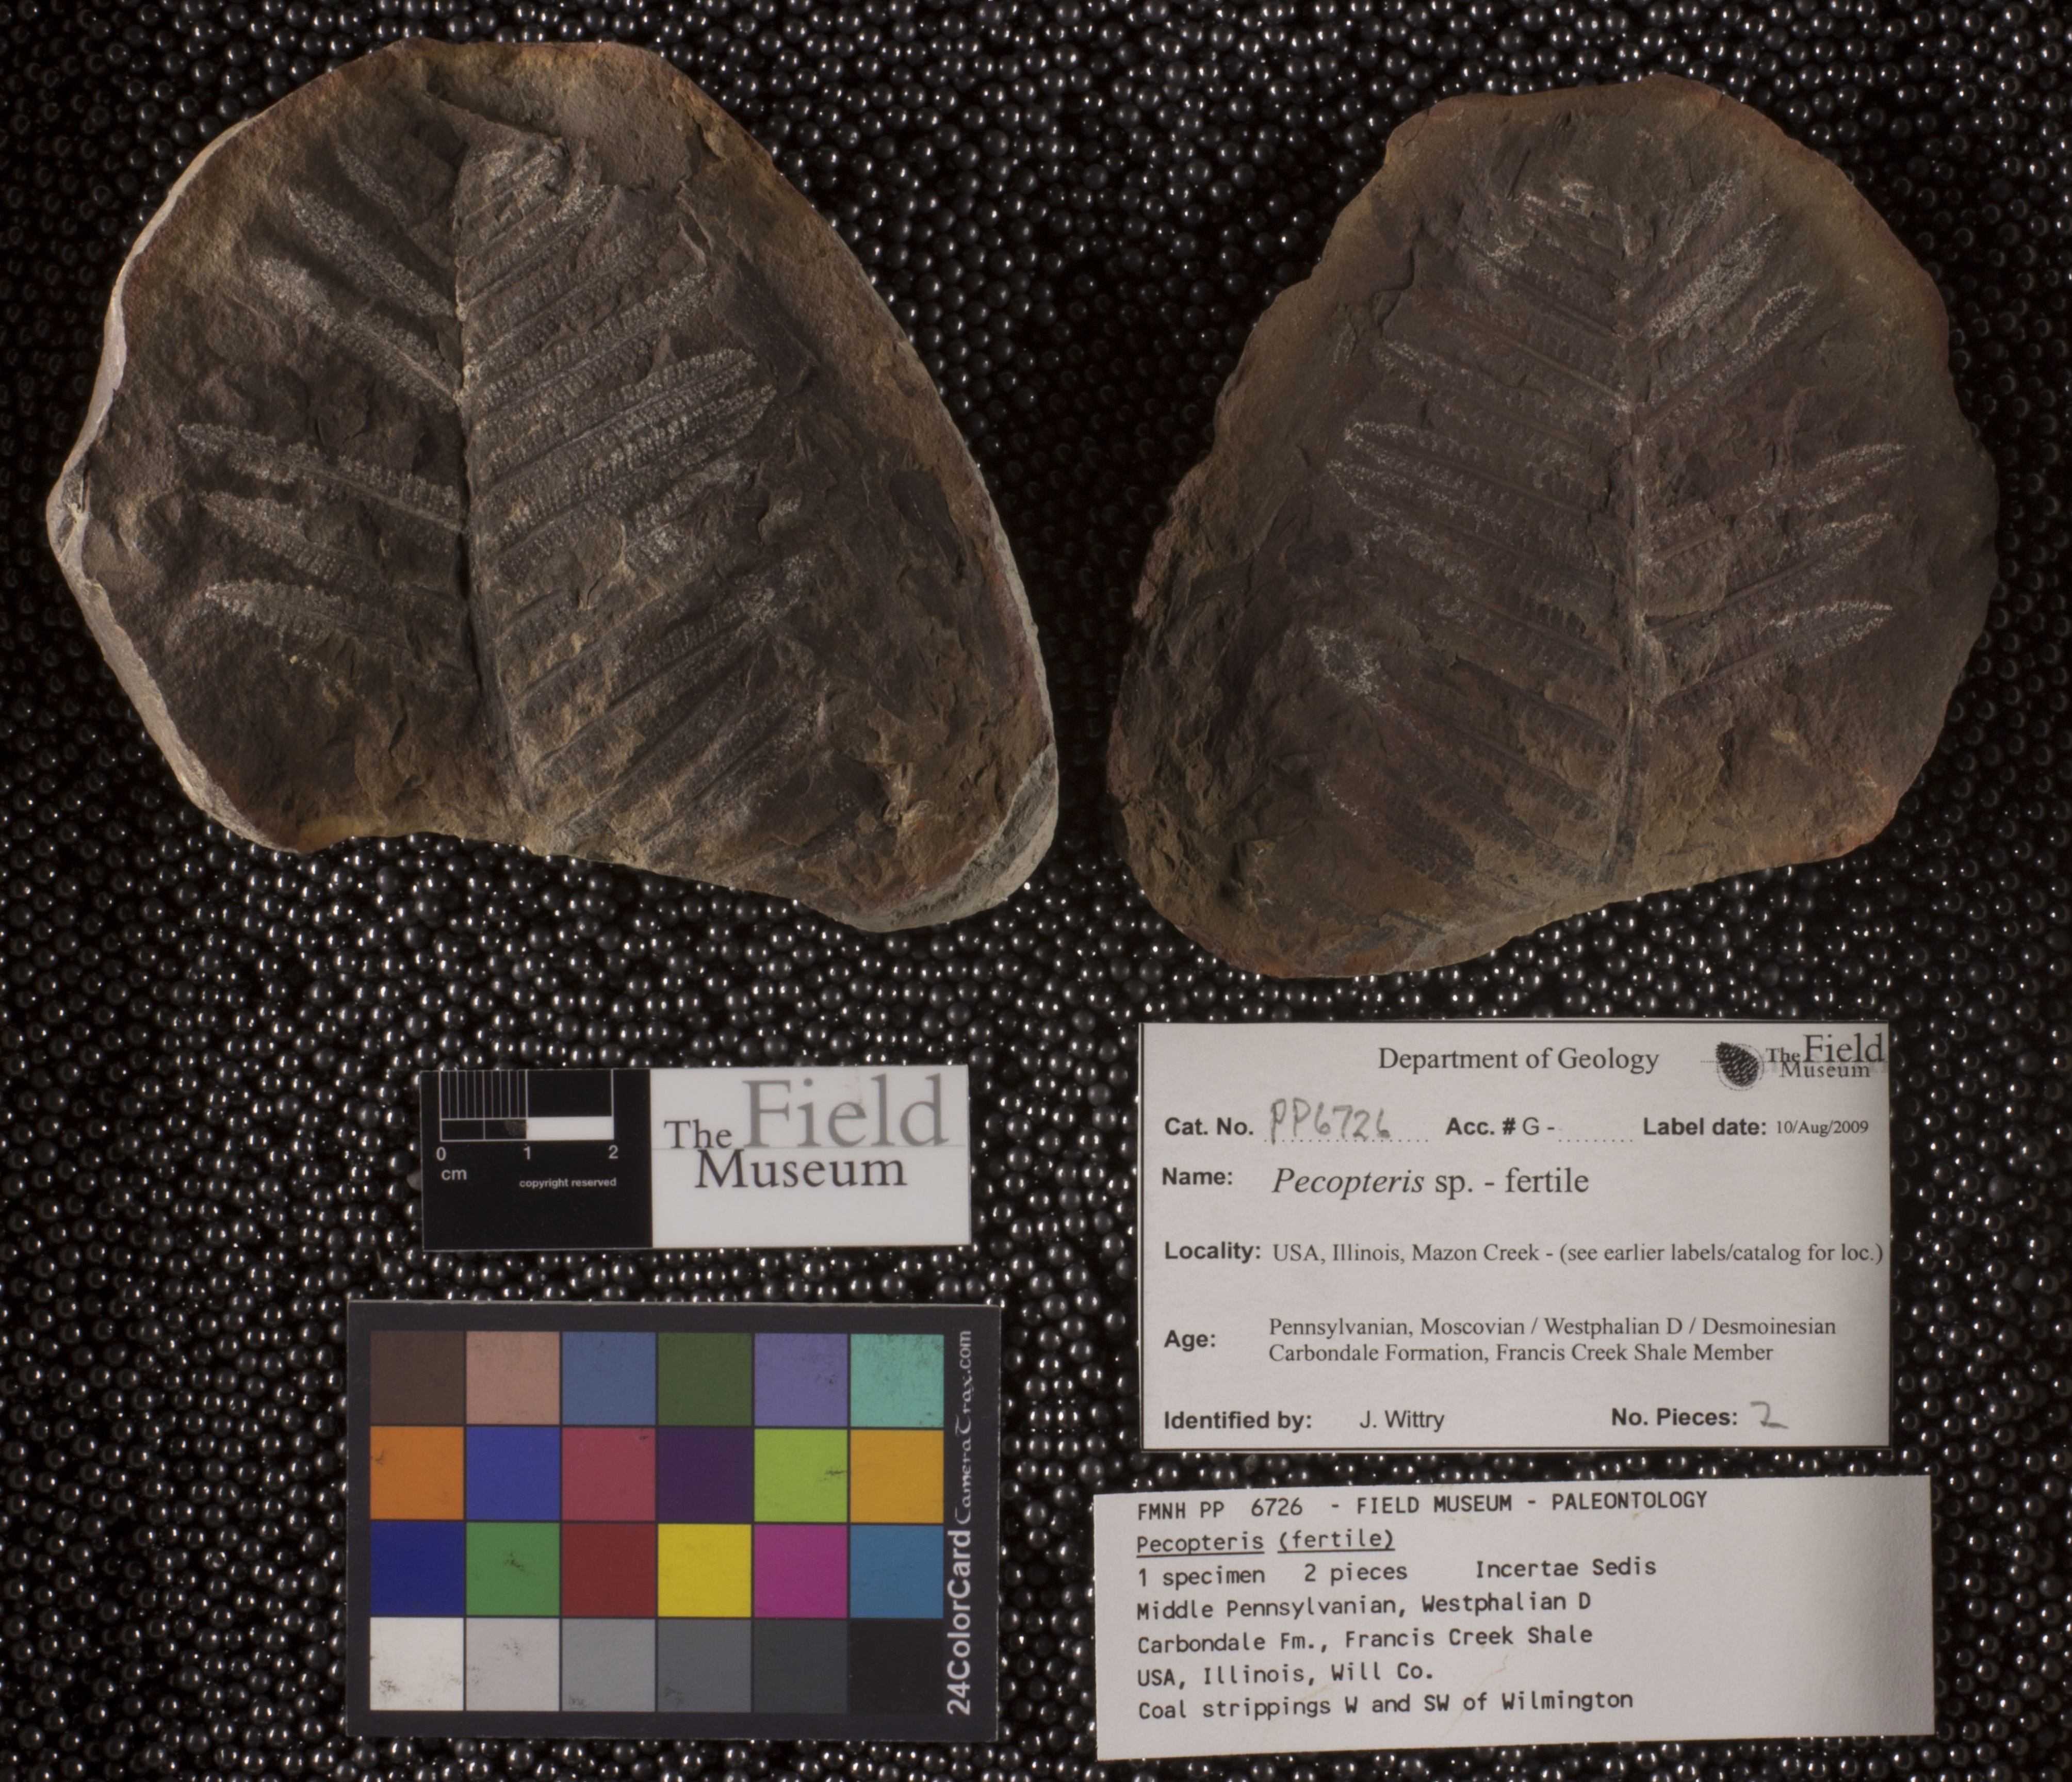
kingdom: Plantae
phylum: Tracheophyta
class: Polypodiopsida
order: Marattiales
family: Asterothecaceae
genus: Pecopteris
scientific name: Pecopteris
